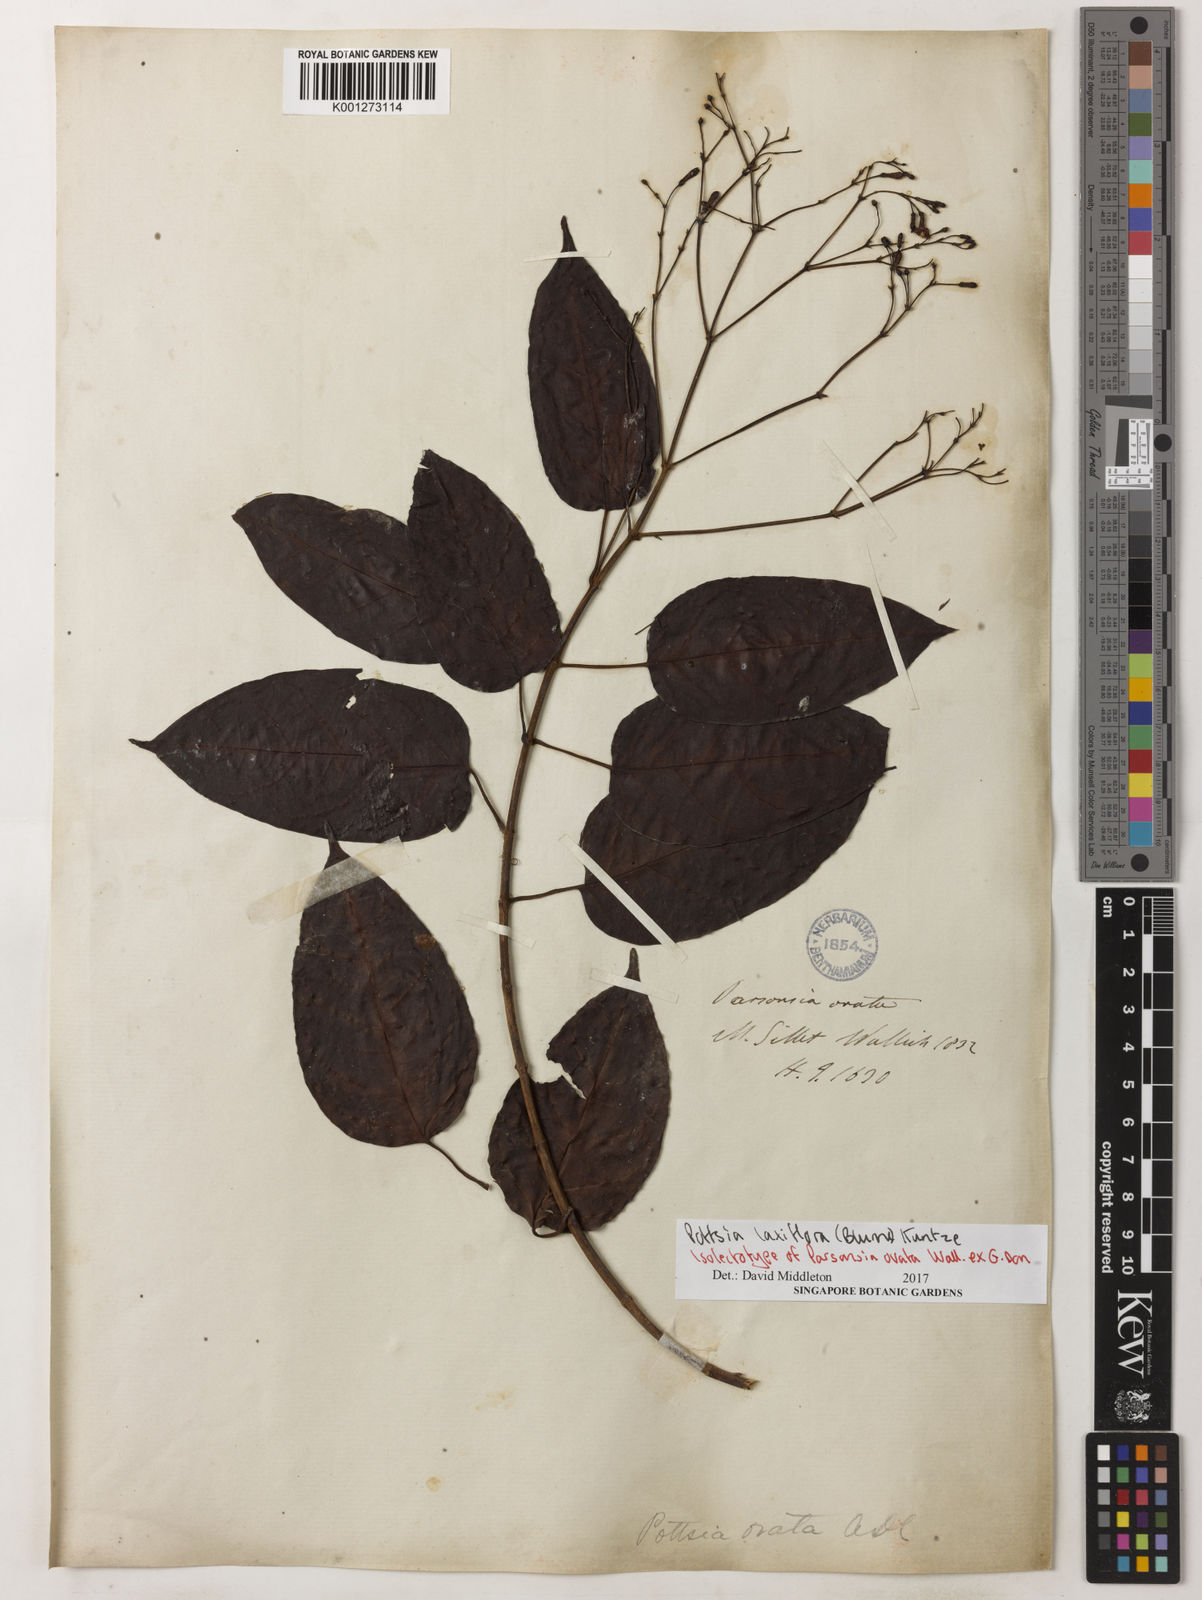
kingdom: Plantae
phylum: Tracheophyta
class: Magnoliopsida
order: Gentianales
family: Apocynaceae
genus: Pottsia
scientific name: Pottsia laxiflora
